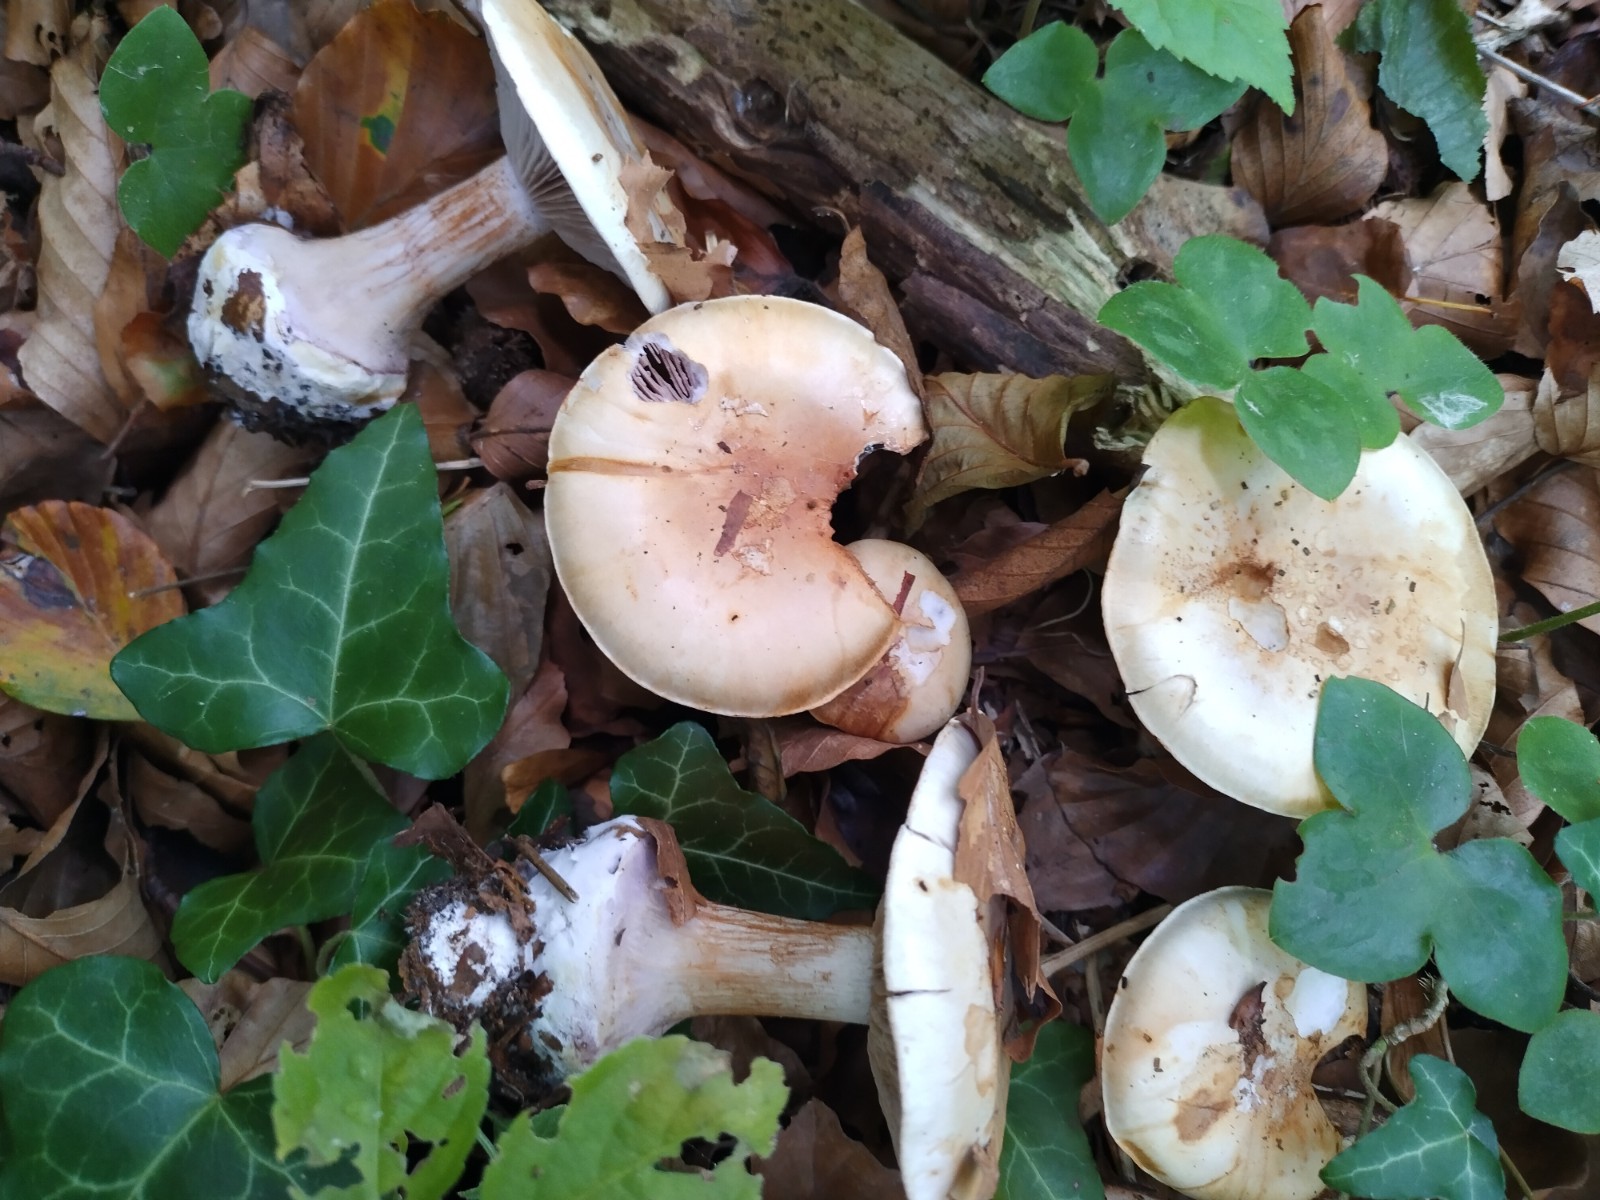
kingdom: Fungi
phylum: Basidiomycota
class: Agaricomycetes
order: Agaricales
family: Cortinariaceae
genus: Cortinarius
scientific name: Cortinarius
